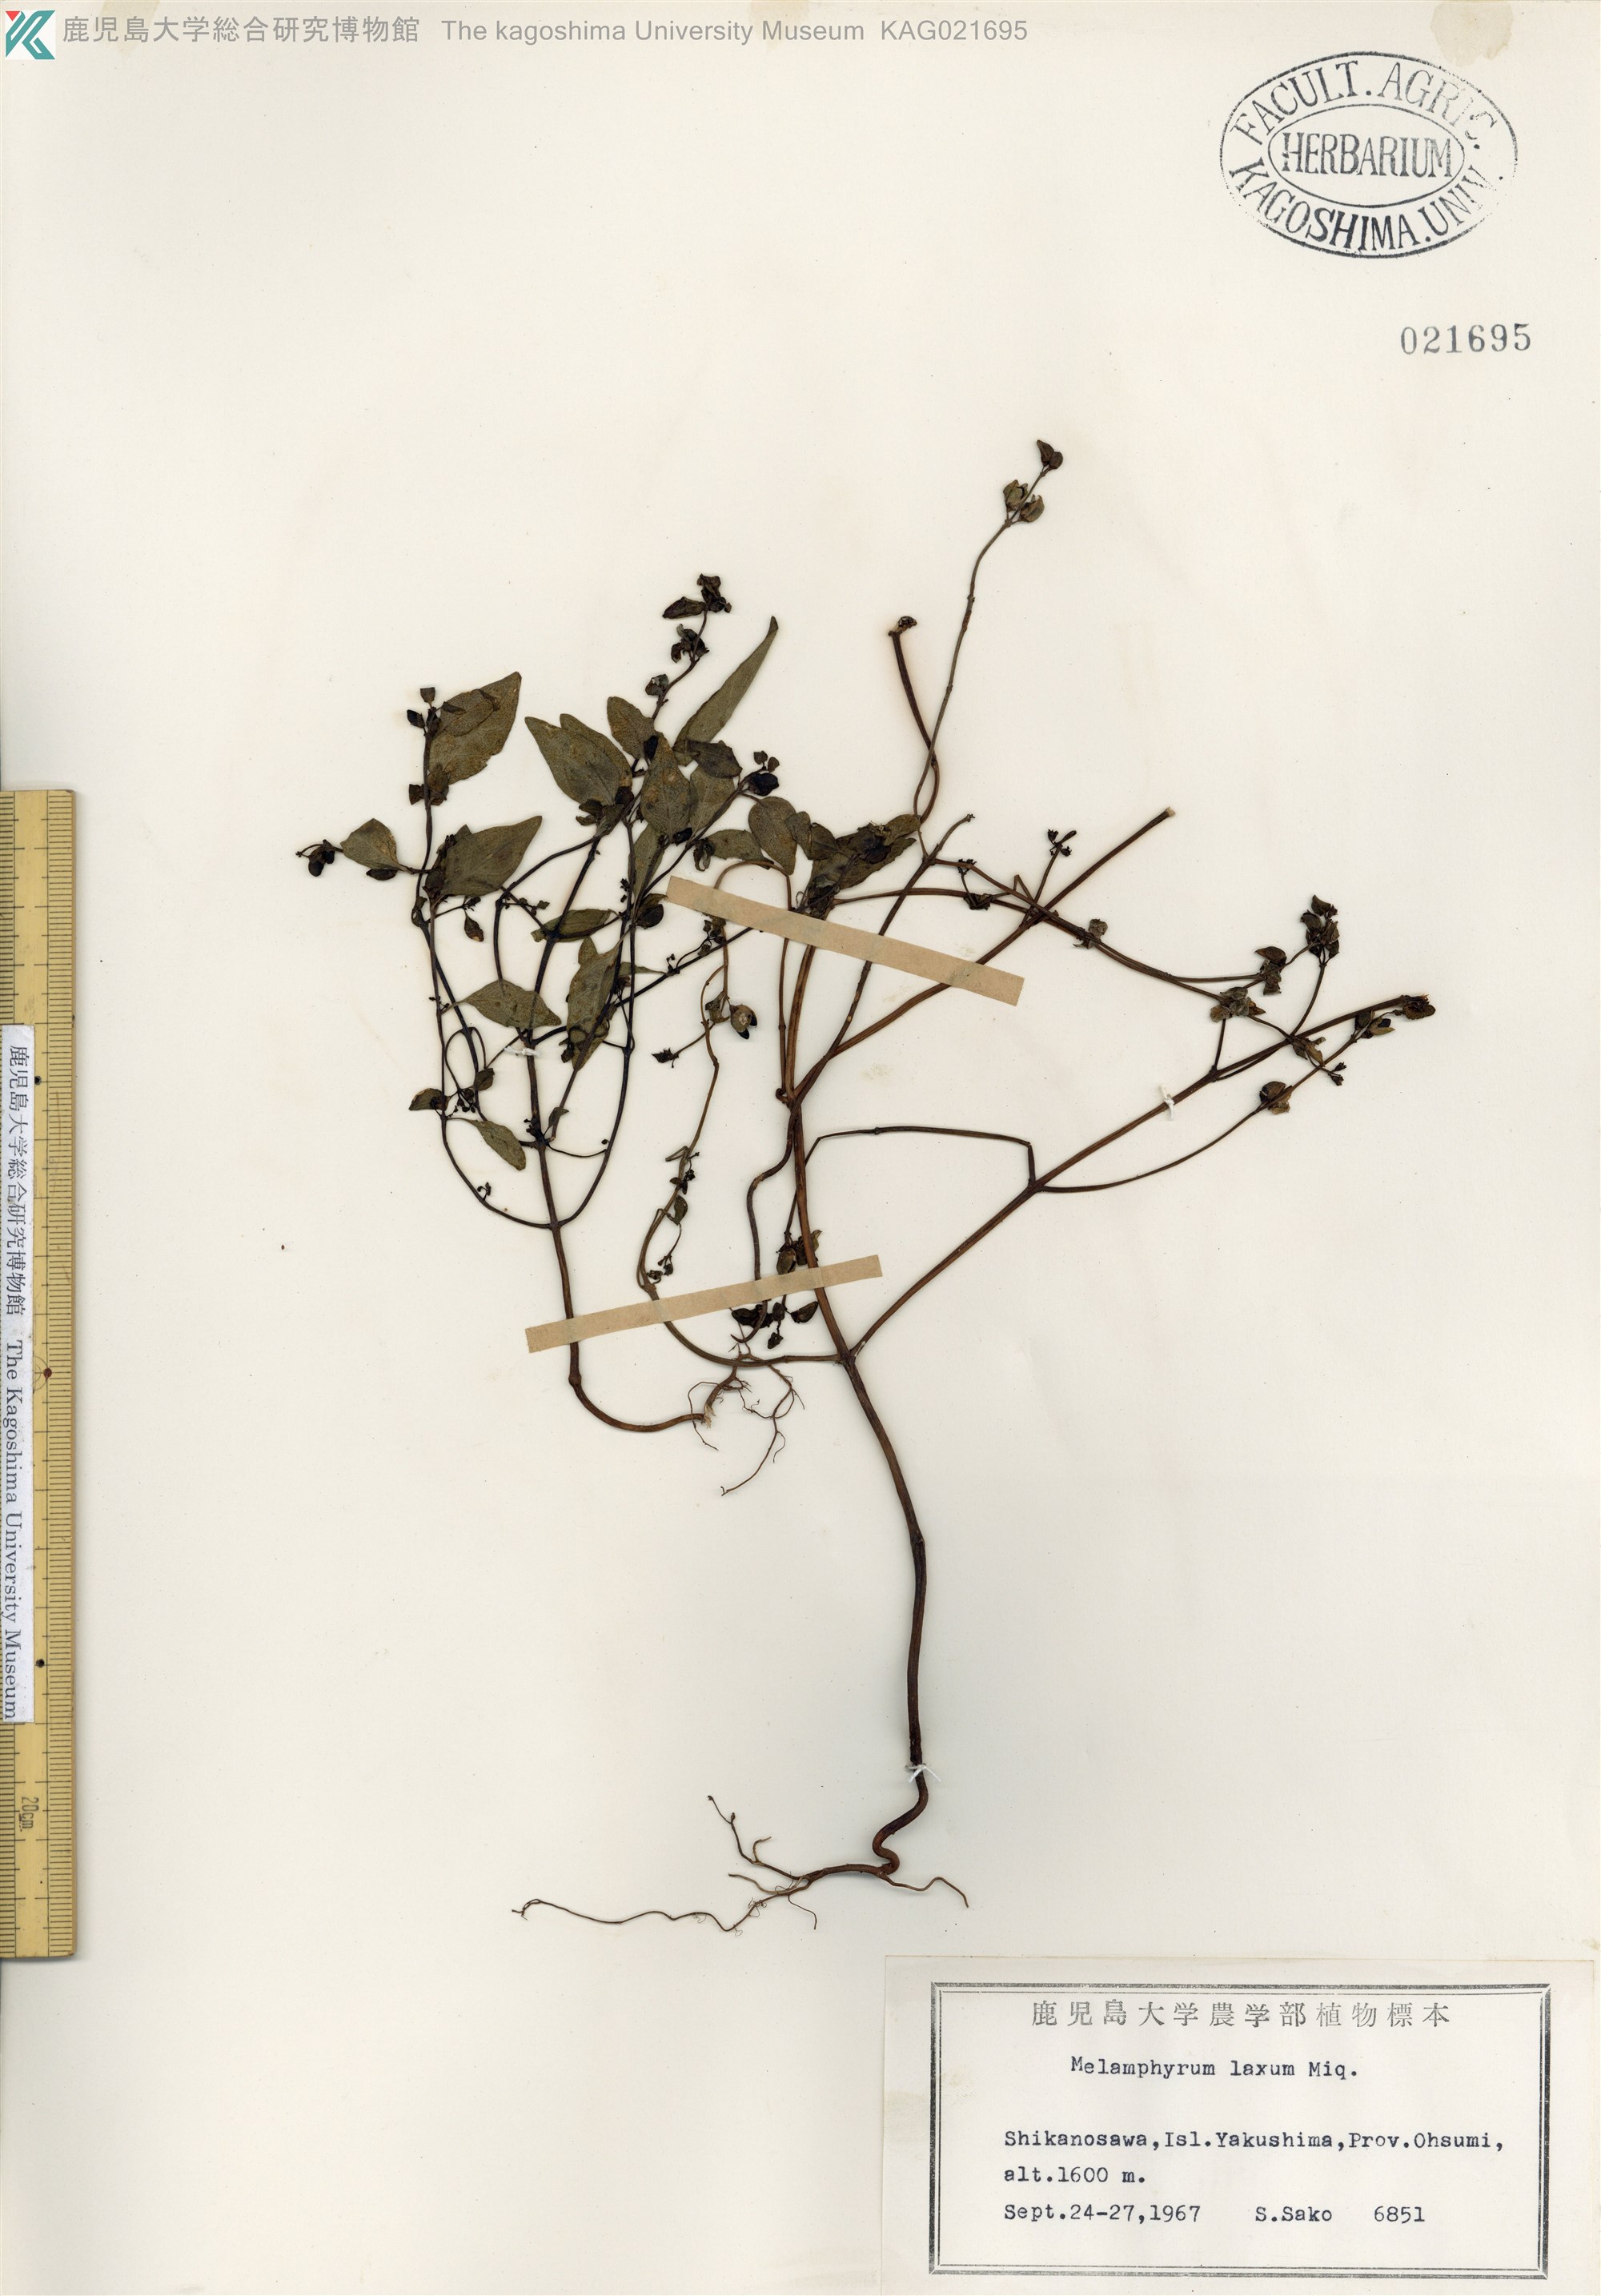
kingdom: Plantae
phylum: Tracheophyta
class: Magnoliopsida
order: Lamiales
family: Orobanchaceae
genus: Melampyrum
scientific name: Melampyrum laxum
